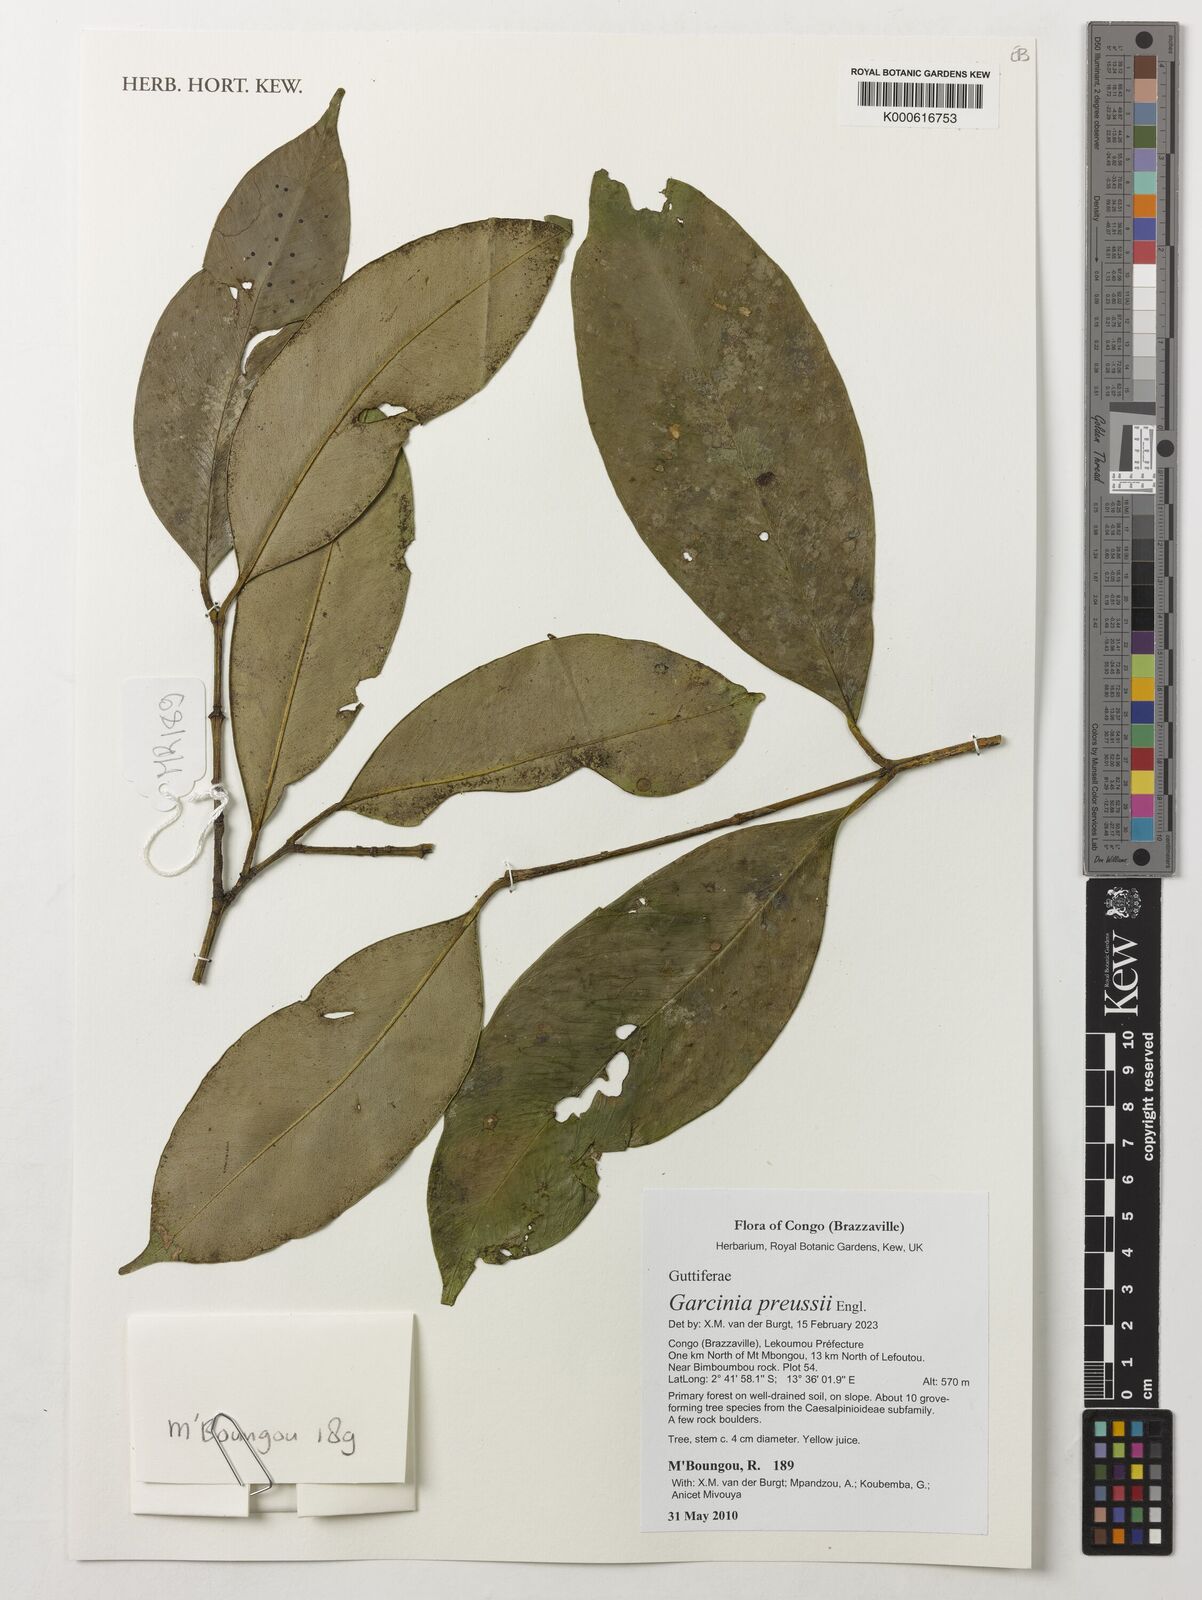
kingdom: Plantae
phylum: Tracheophyta
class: Magnoliopsida
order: Malpighiales
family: Clusiaceae
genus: Garcinia
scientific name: Garcinia preussii
